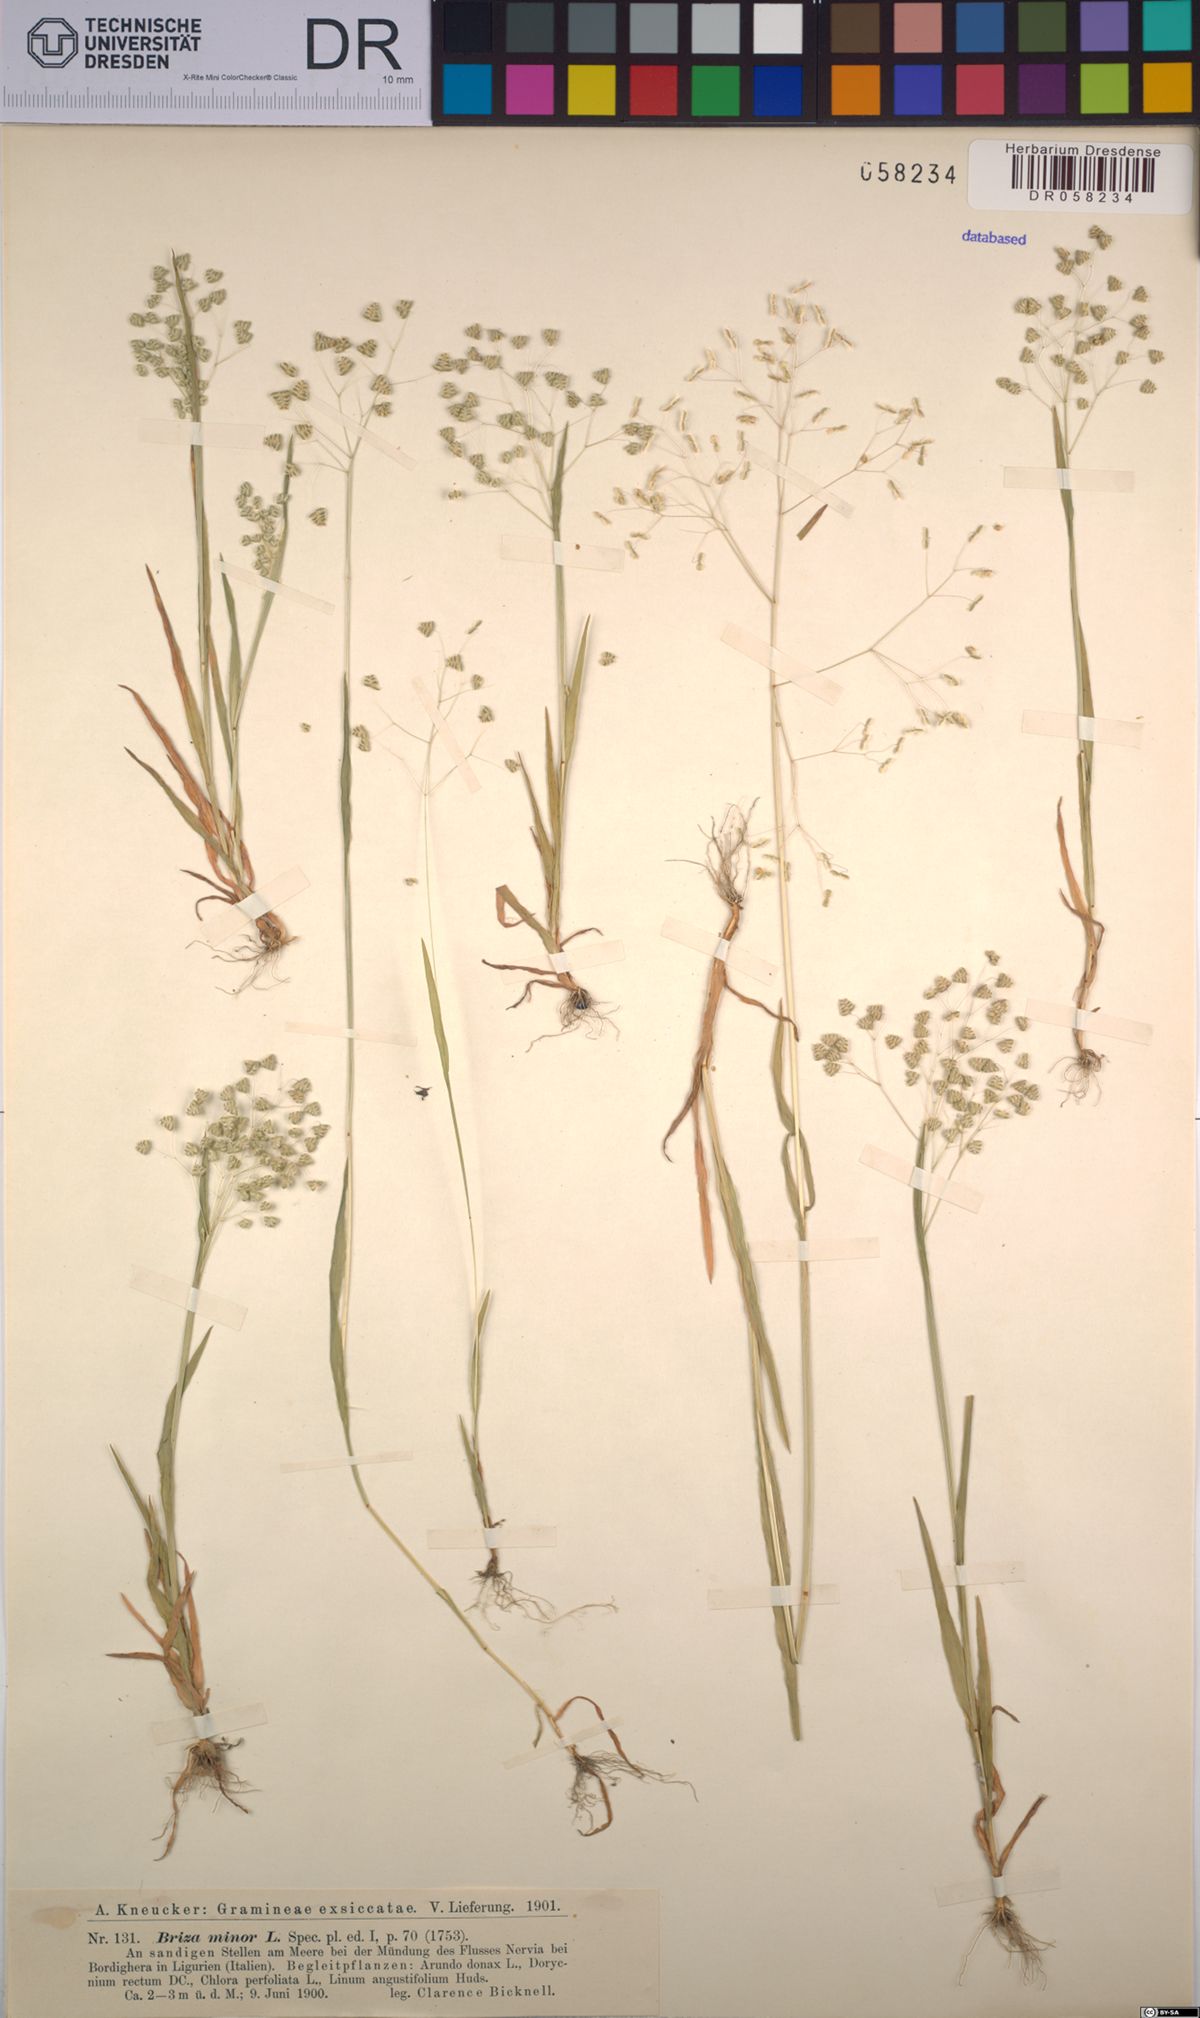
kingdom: Plantae
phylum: Tracheophyta
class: Liliopsida
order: Poales
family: Poaceae
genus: Briza
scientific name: Briza minor
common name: Lesser quaking-grass
